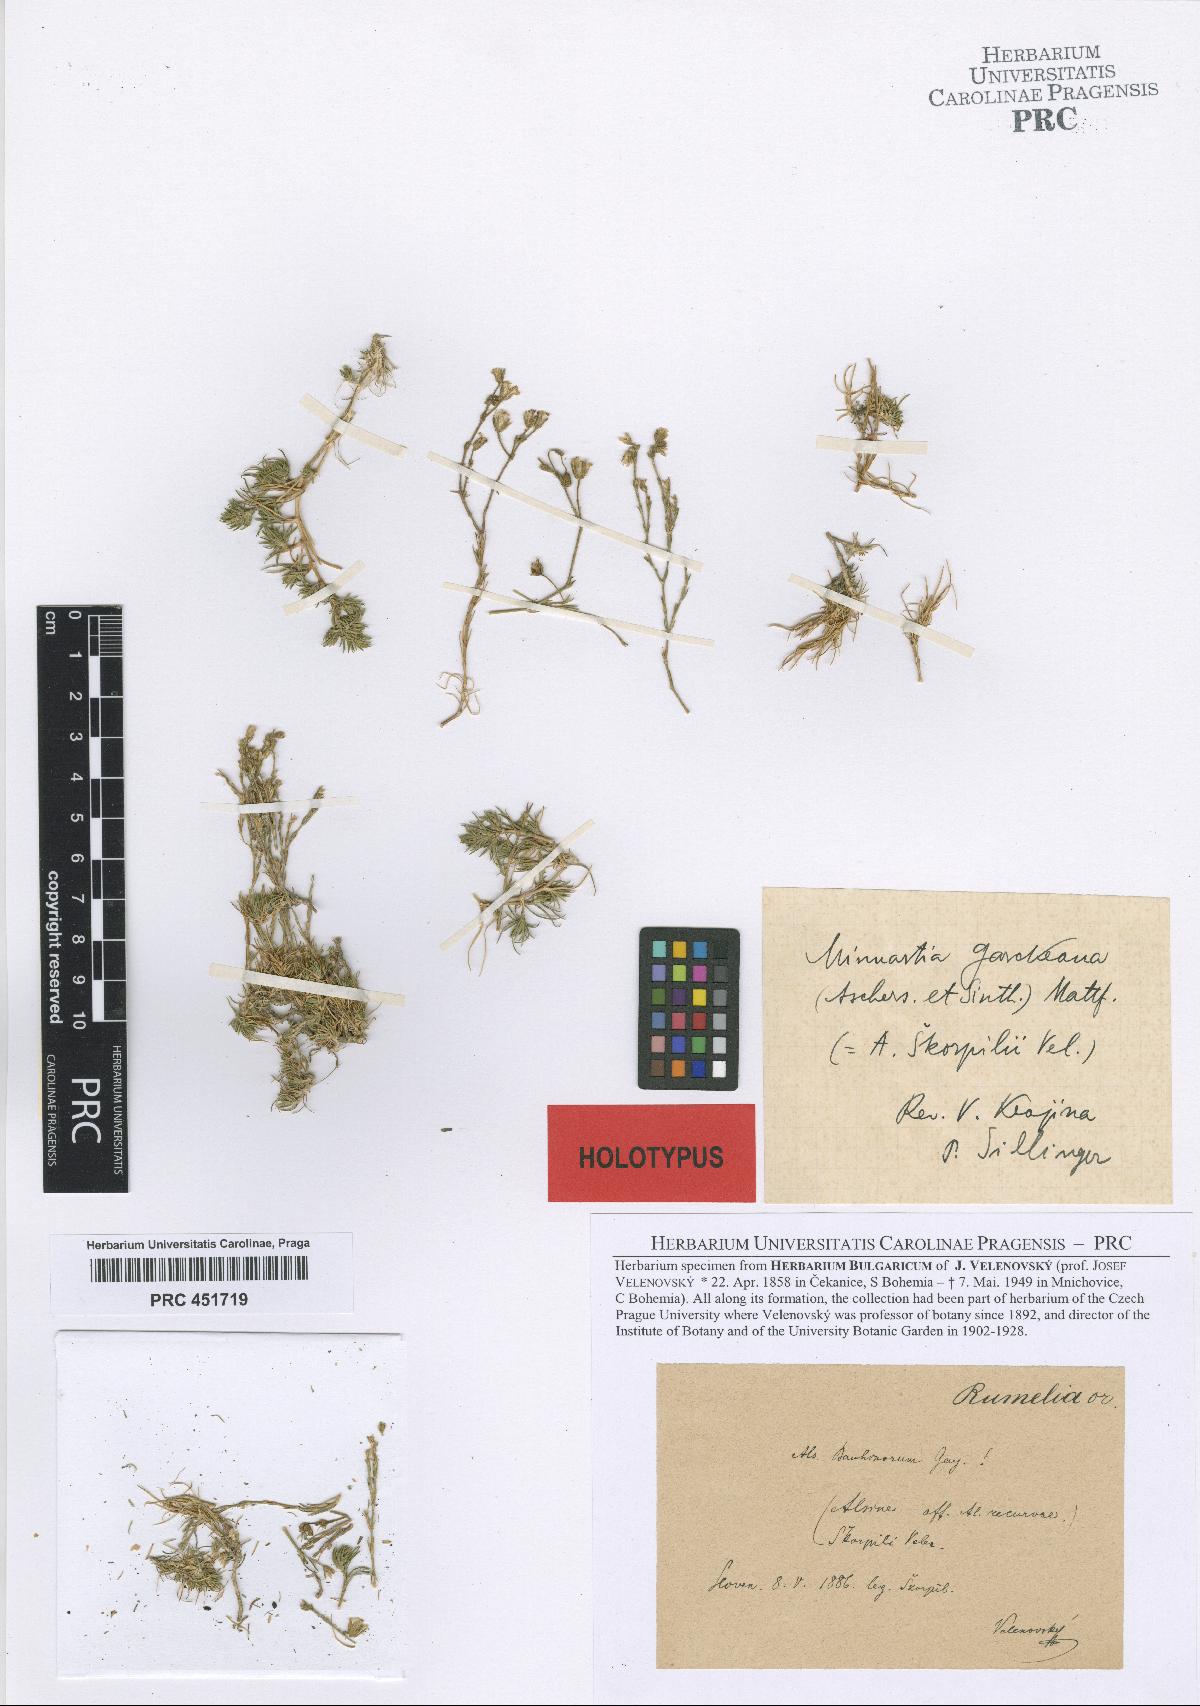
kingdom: Plantae
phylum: Tracheophyta
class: Magnoliopsida
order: Caryophyllales
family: Caryophyllaceae
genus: Cherleria
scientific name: Cherleria garckeana
